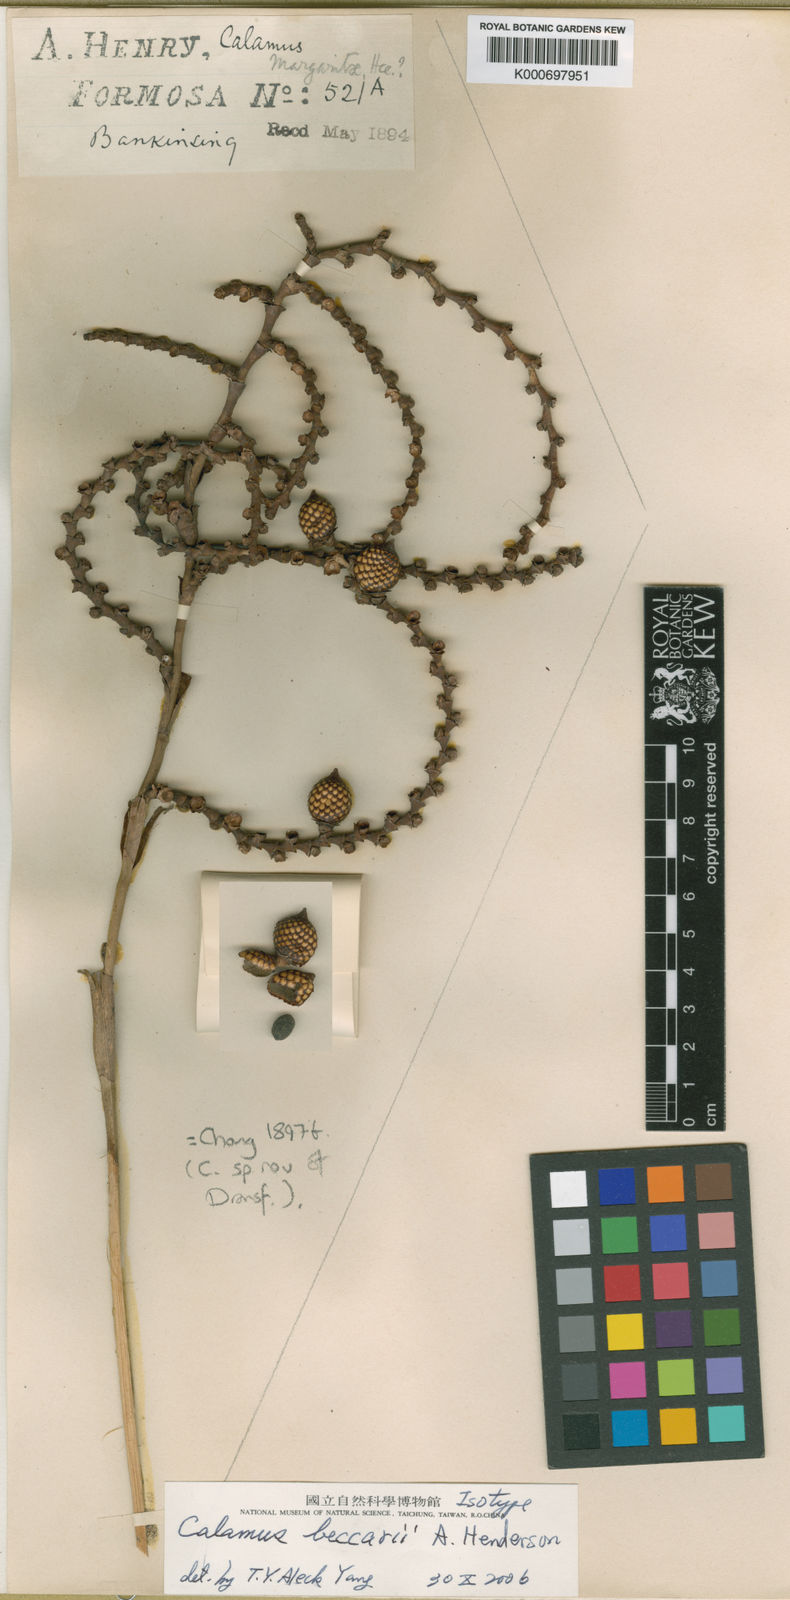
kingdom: Plantae
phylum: Tracheophyta
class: Liliopsida
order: Arecales
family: Arecaceae
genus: Calamus
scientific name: Calamus beccarii
